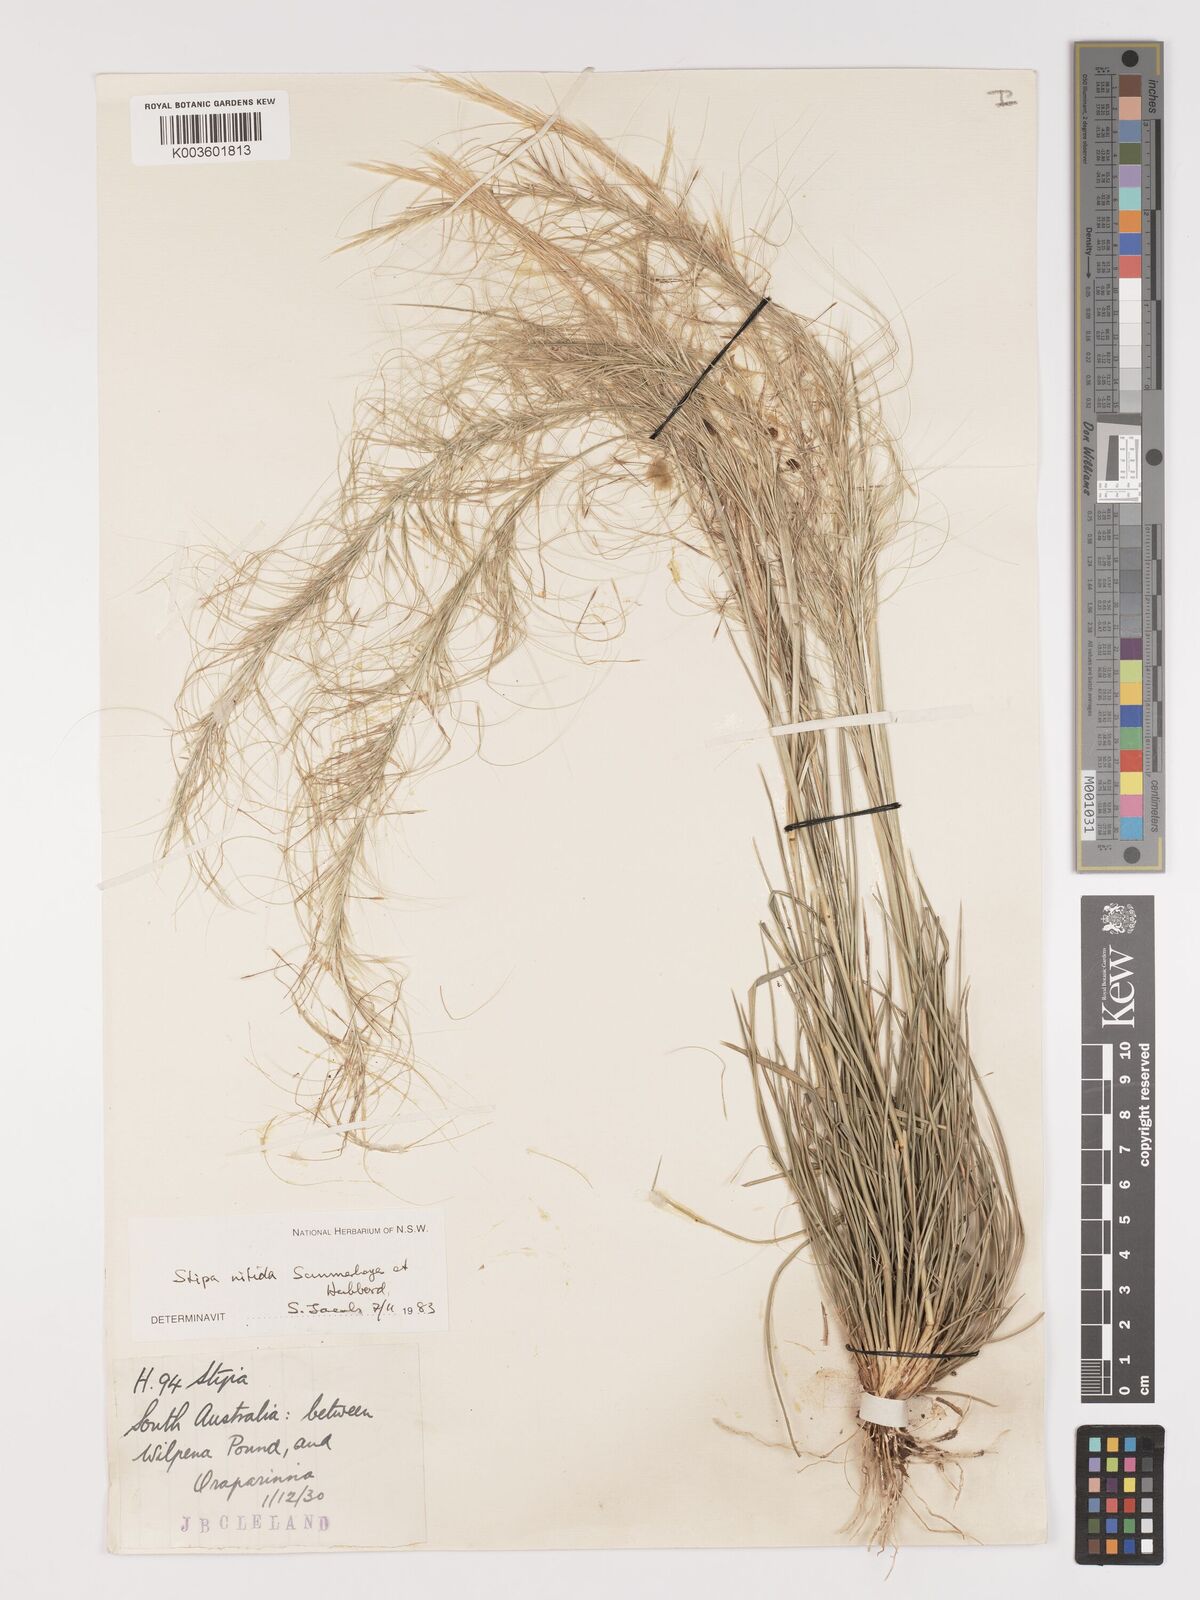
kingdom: Plantae
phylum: Tracheophyta
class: Liliopsida
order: Poales
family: Poaceae
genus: Austrostipa
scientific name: Austrostipa nitida
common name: Balcarra grass
